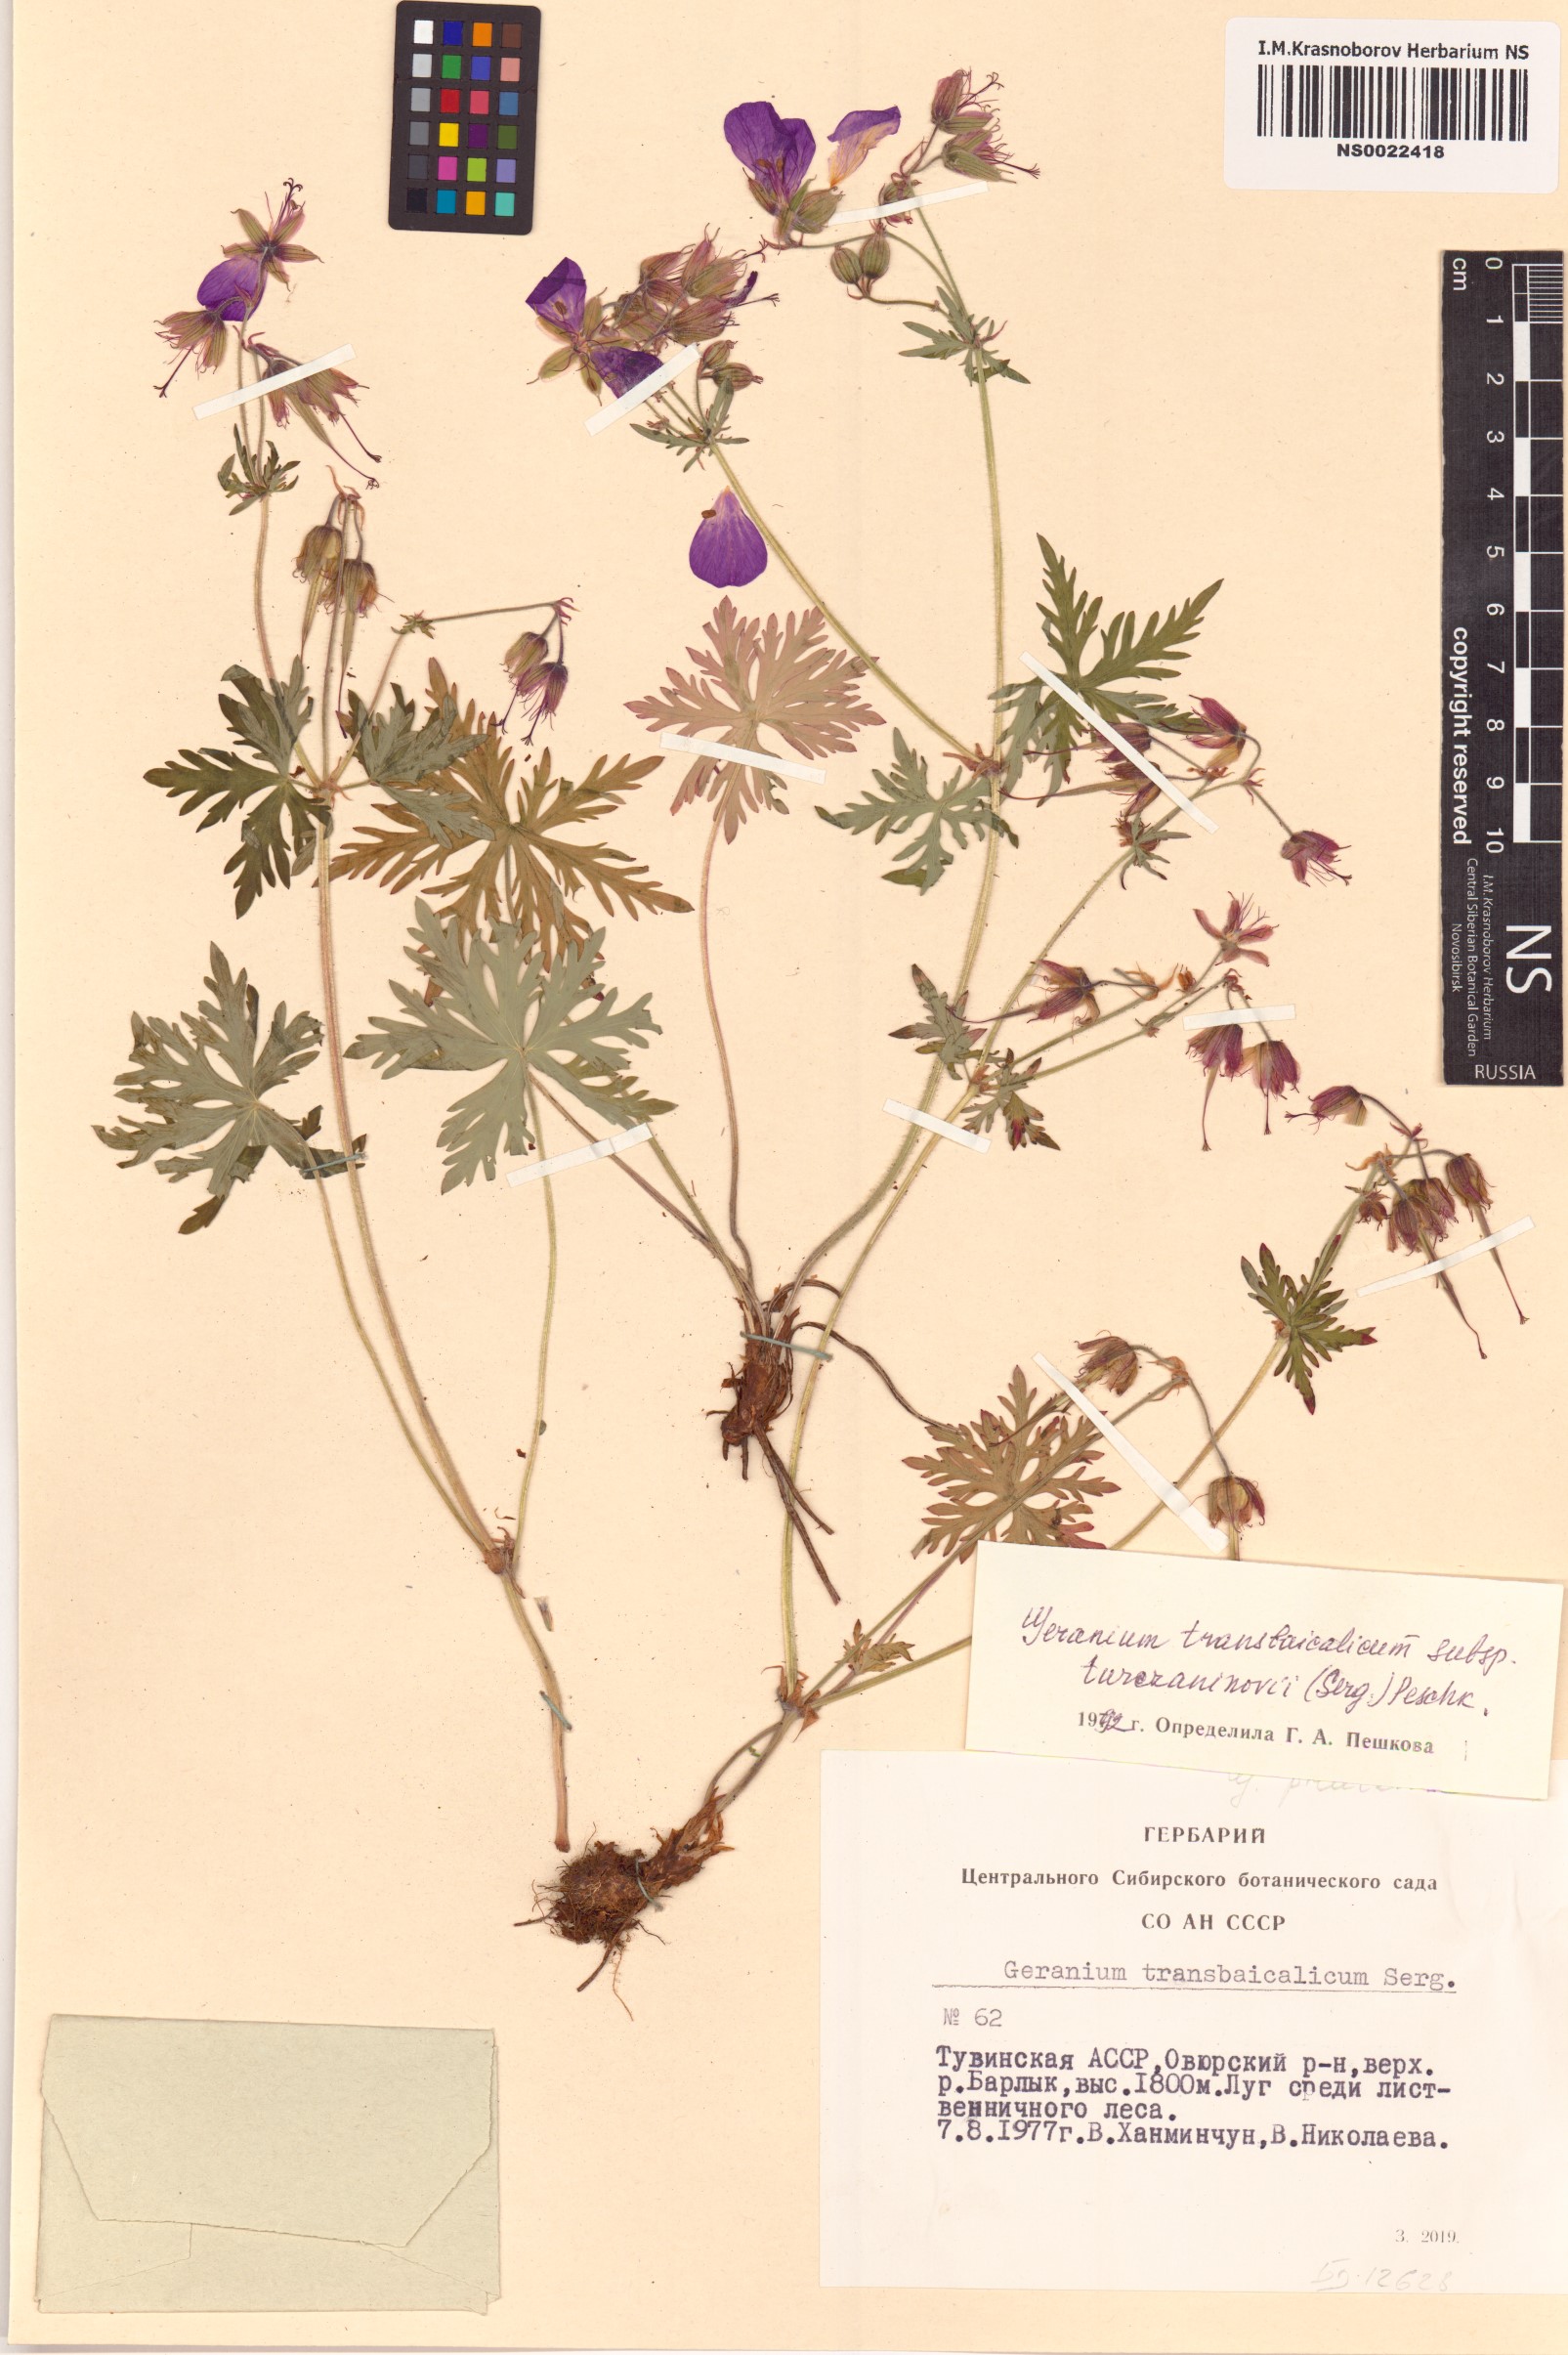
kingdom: Plantae
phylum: Tracheophyta
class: Magnoliopsida
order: Geraniales
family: Geraniaceae
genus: Geranium
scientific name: Geranium pratense
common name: Meadow crane's-bill
